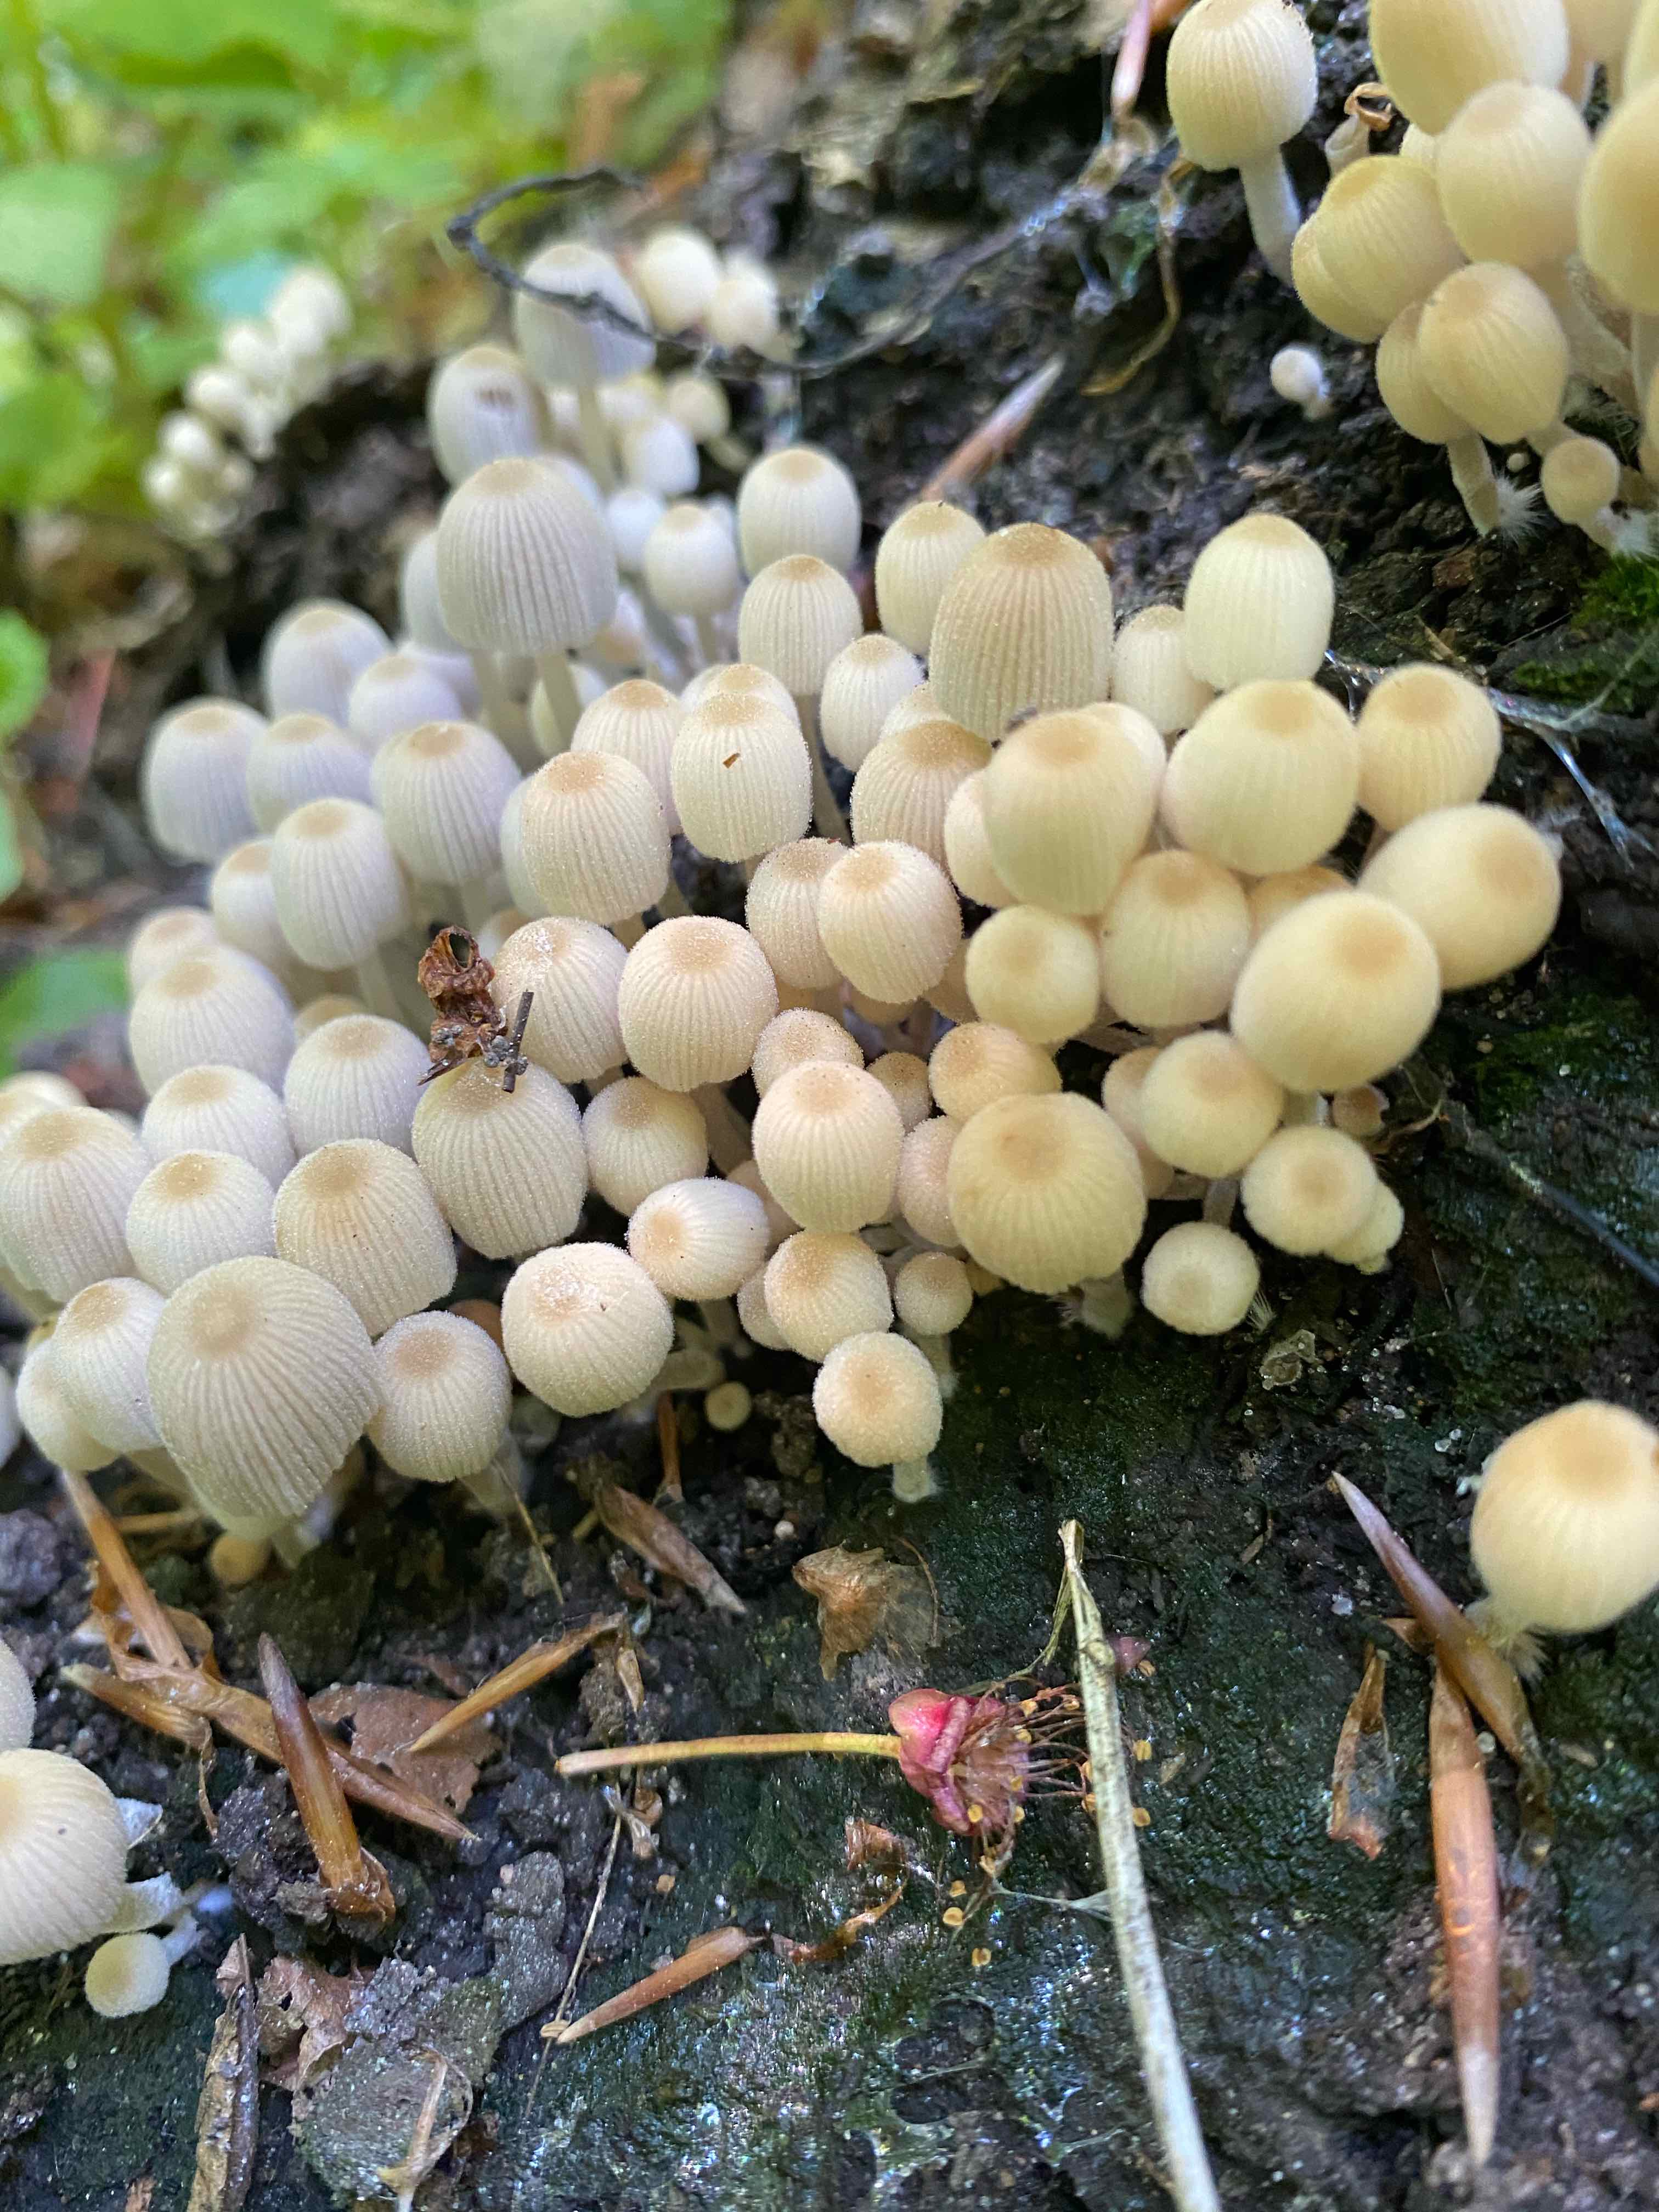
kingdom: Fungi
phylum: Basidiomycota
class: Agaricomycetes
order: Agaricales
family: Psathyrellaceae
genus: Coprinellus
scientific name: Coprinellus disseminatus
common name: bredsået blækhat
